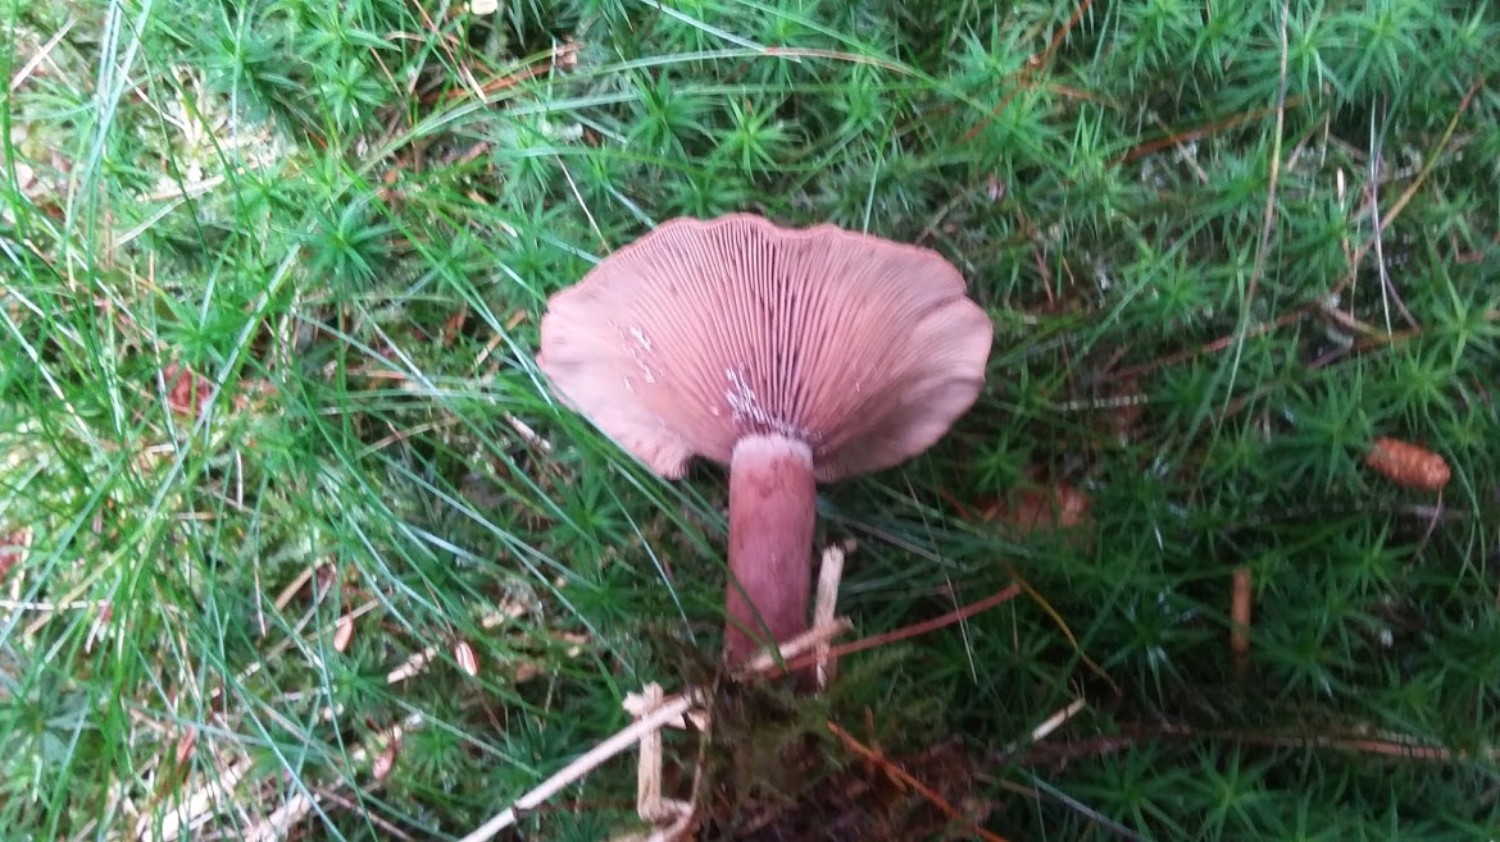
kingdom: Fungi
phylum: Basidiomycota
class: Agaricomycetes
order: Russulales
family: Russulaceae
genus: Lactarius
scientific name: Lactarius camphoratus
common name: kamfer-mælkehat
